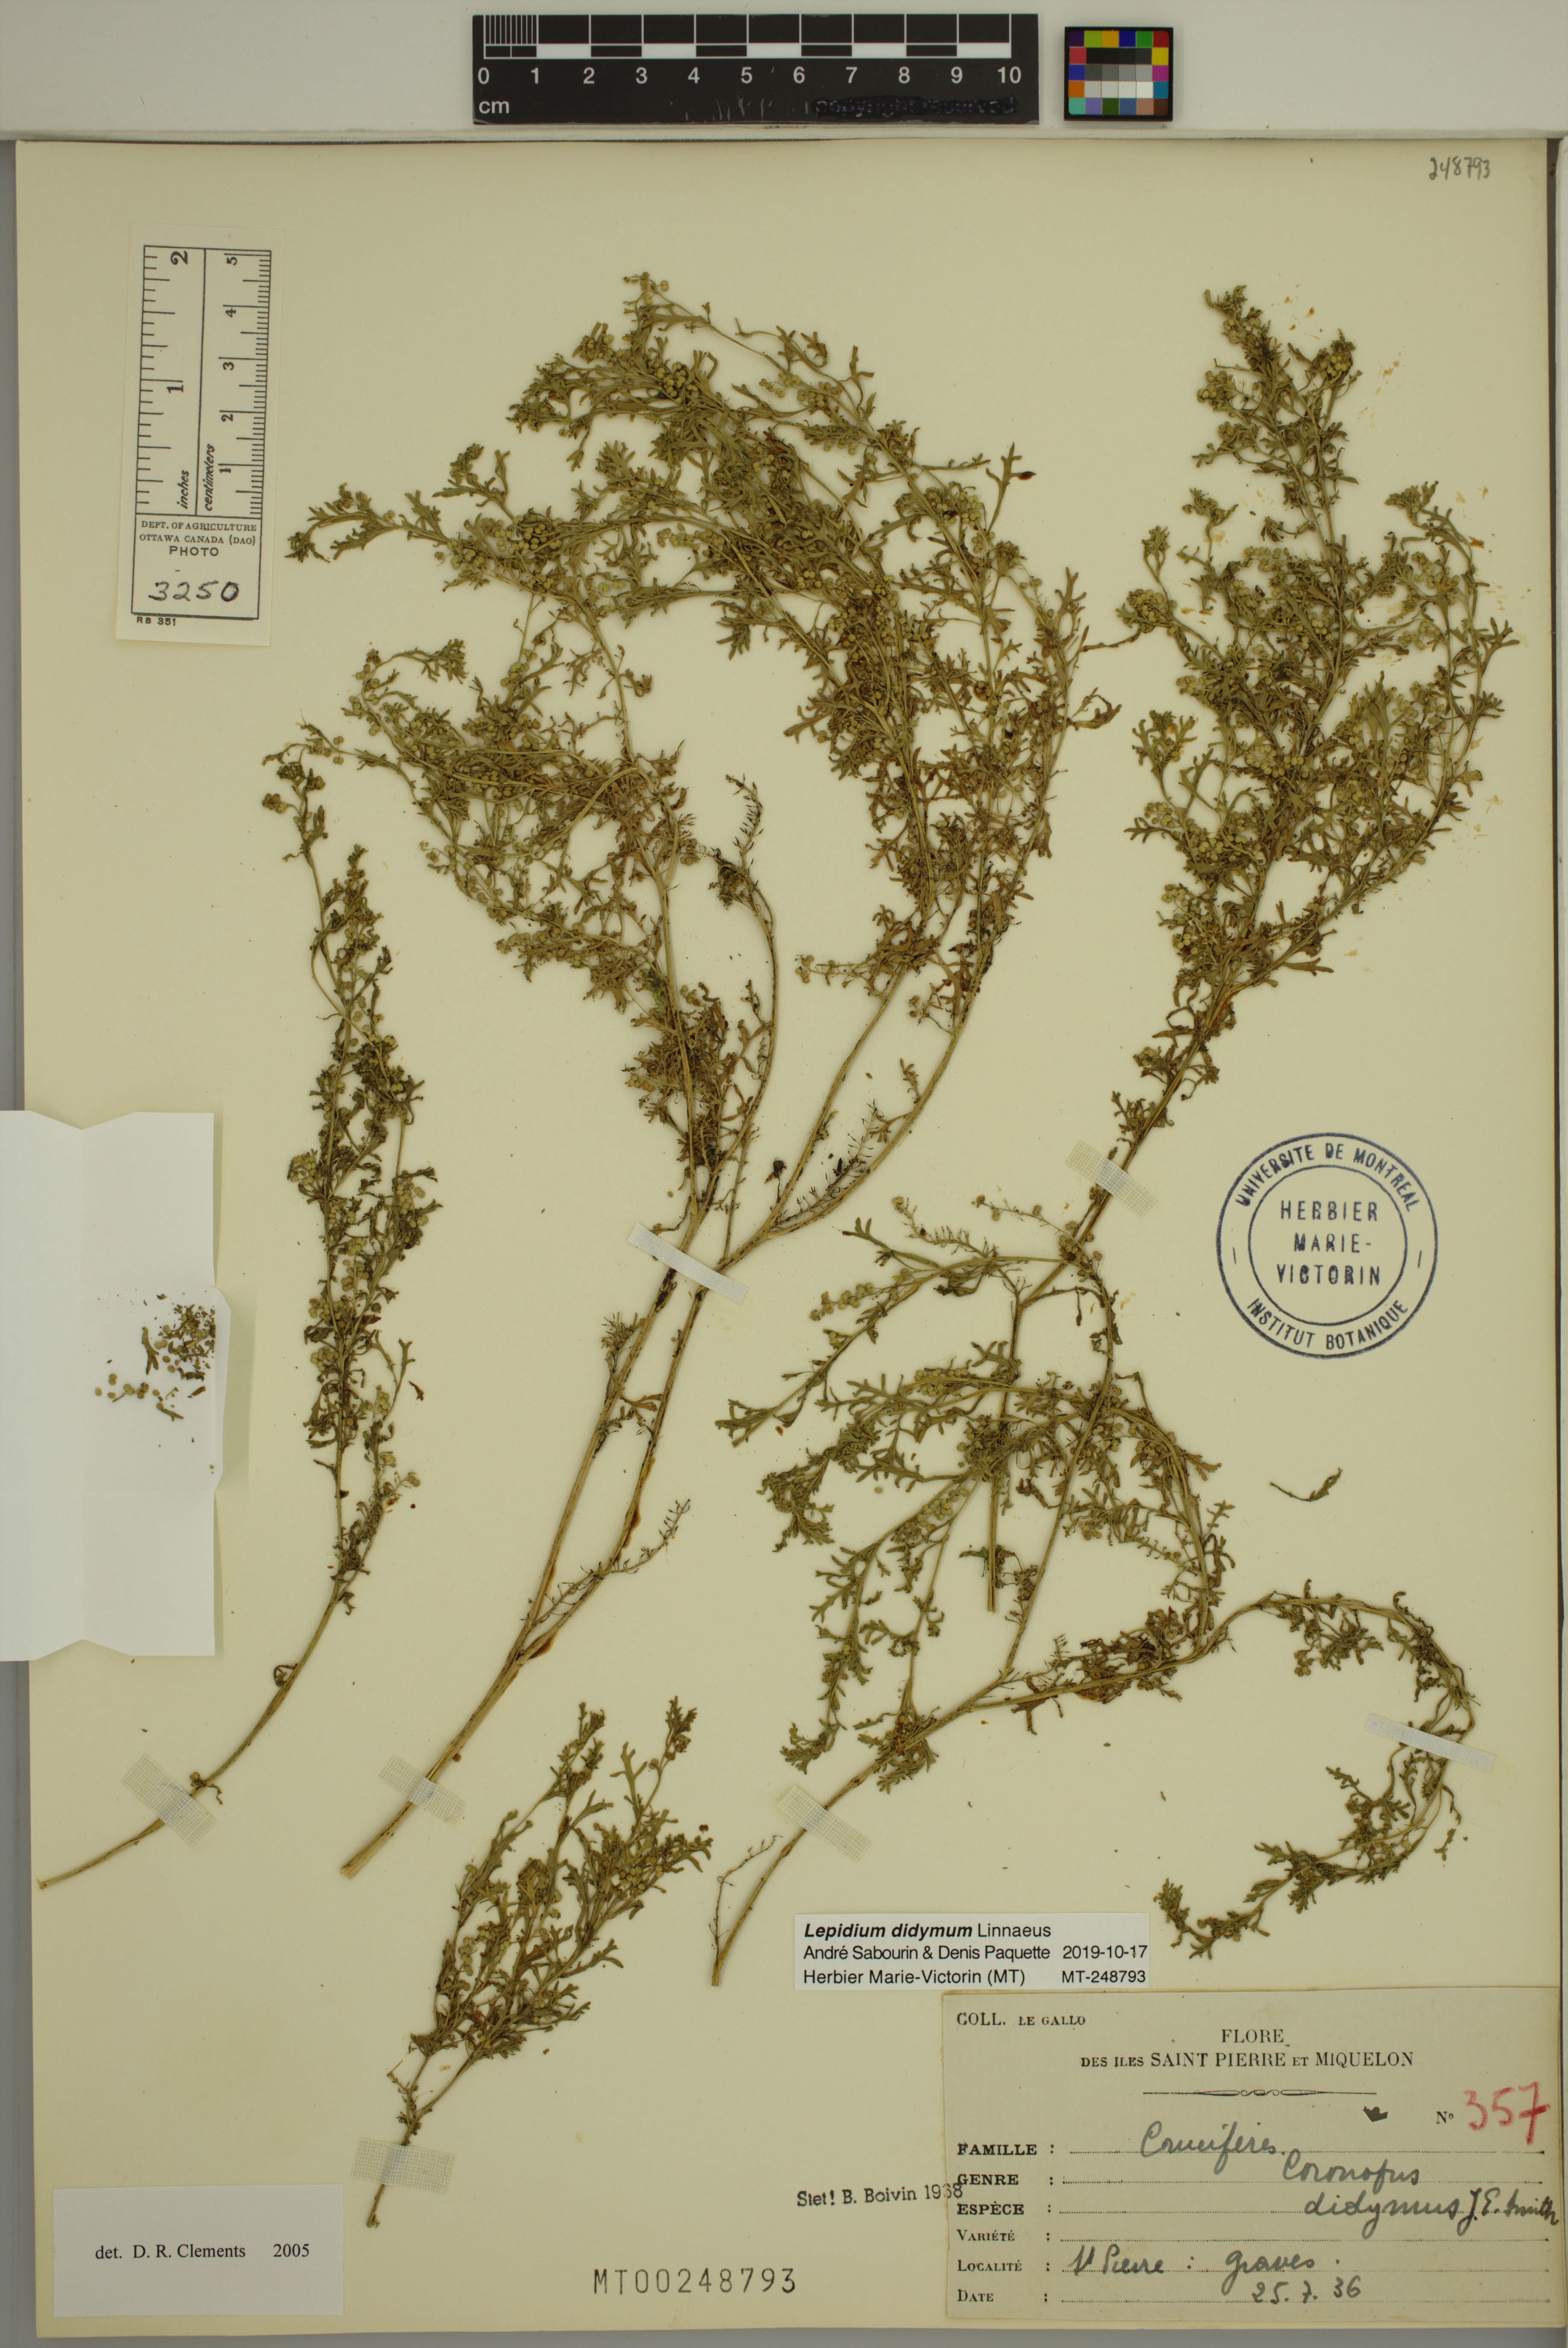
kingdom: Plantae
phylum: Tracheophyta
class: Magnoliopsida
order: Brassicales
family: Brassicaceae
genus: Lepidium
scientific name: Lepidium didymum
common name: Lesser swinecress
